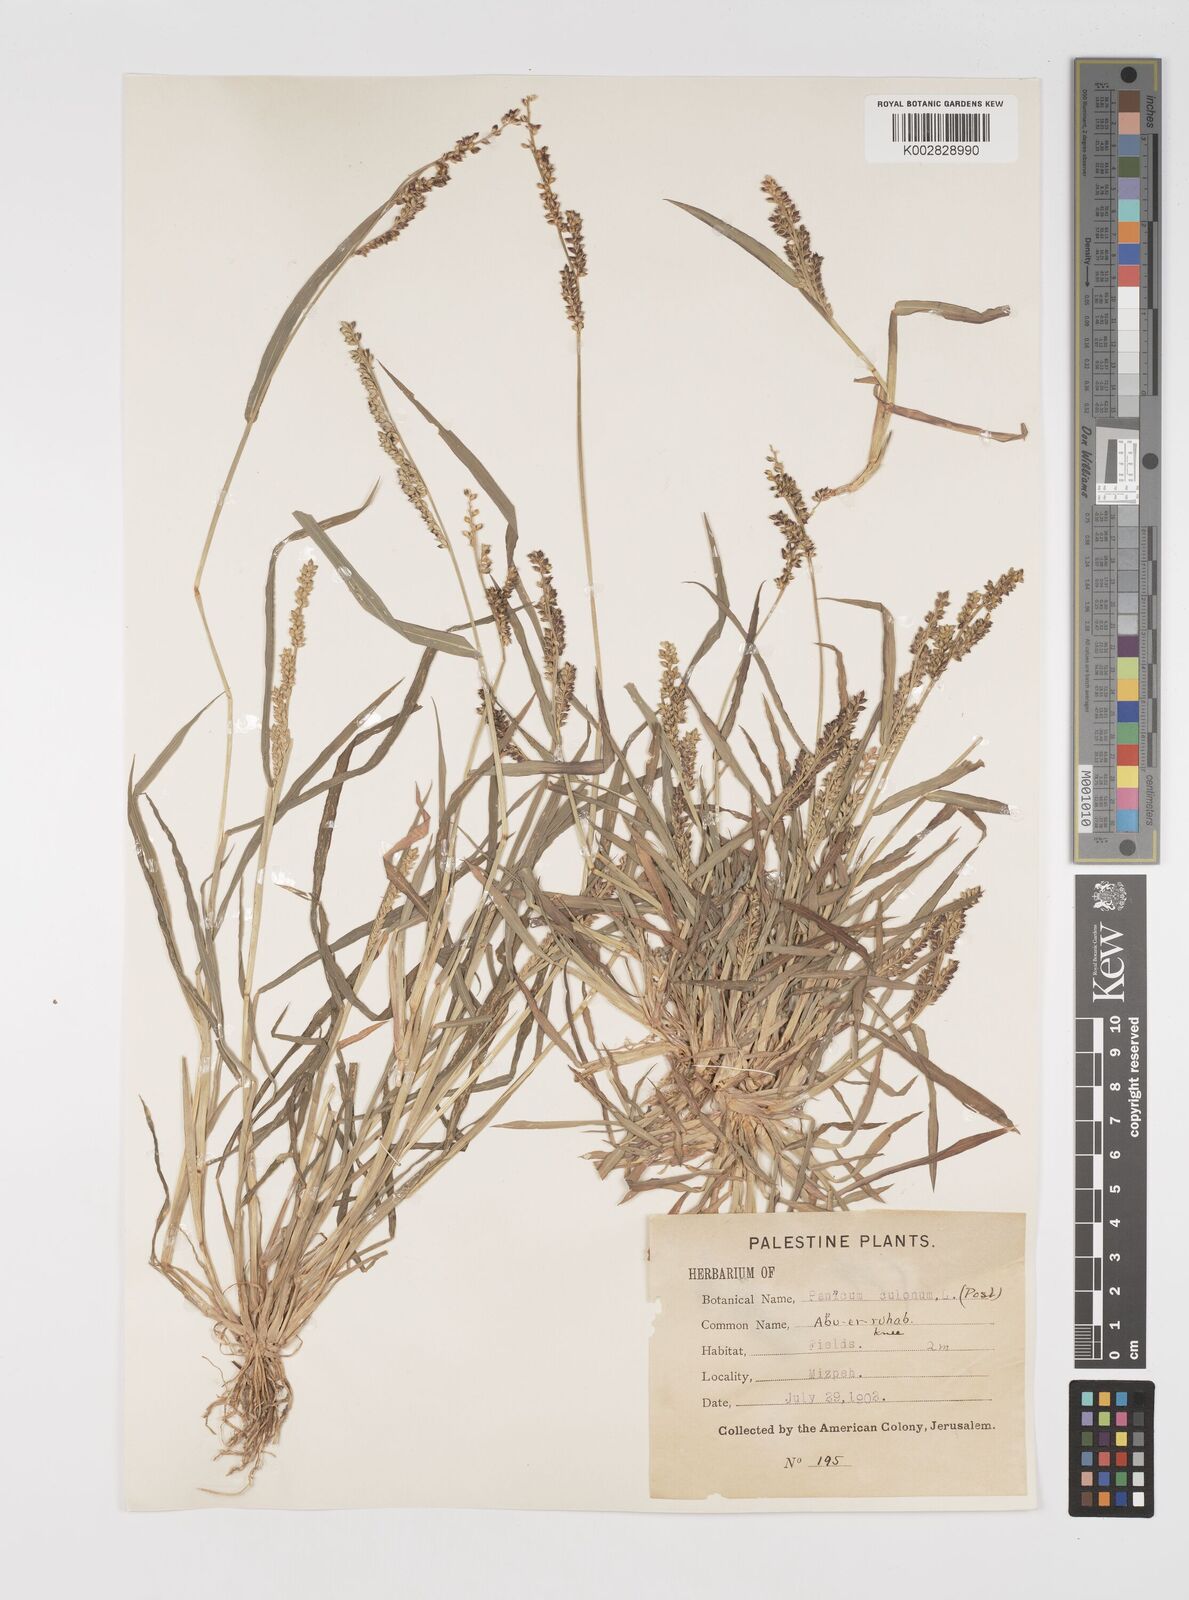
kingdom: Plantae
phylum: Tracheophyta
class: Liliopsida
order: Poales
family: Poaceae
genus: Echinochloa
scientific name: Echinochloa colonum
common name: Jungle rice
